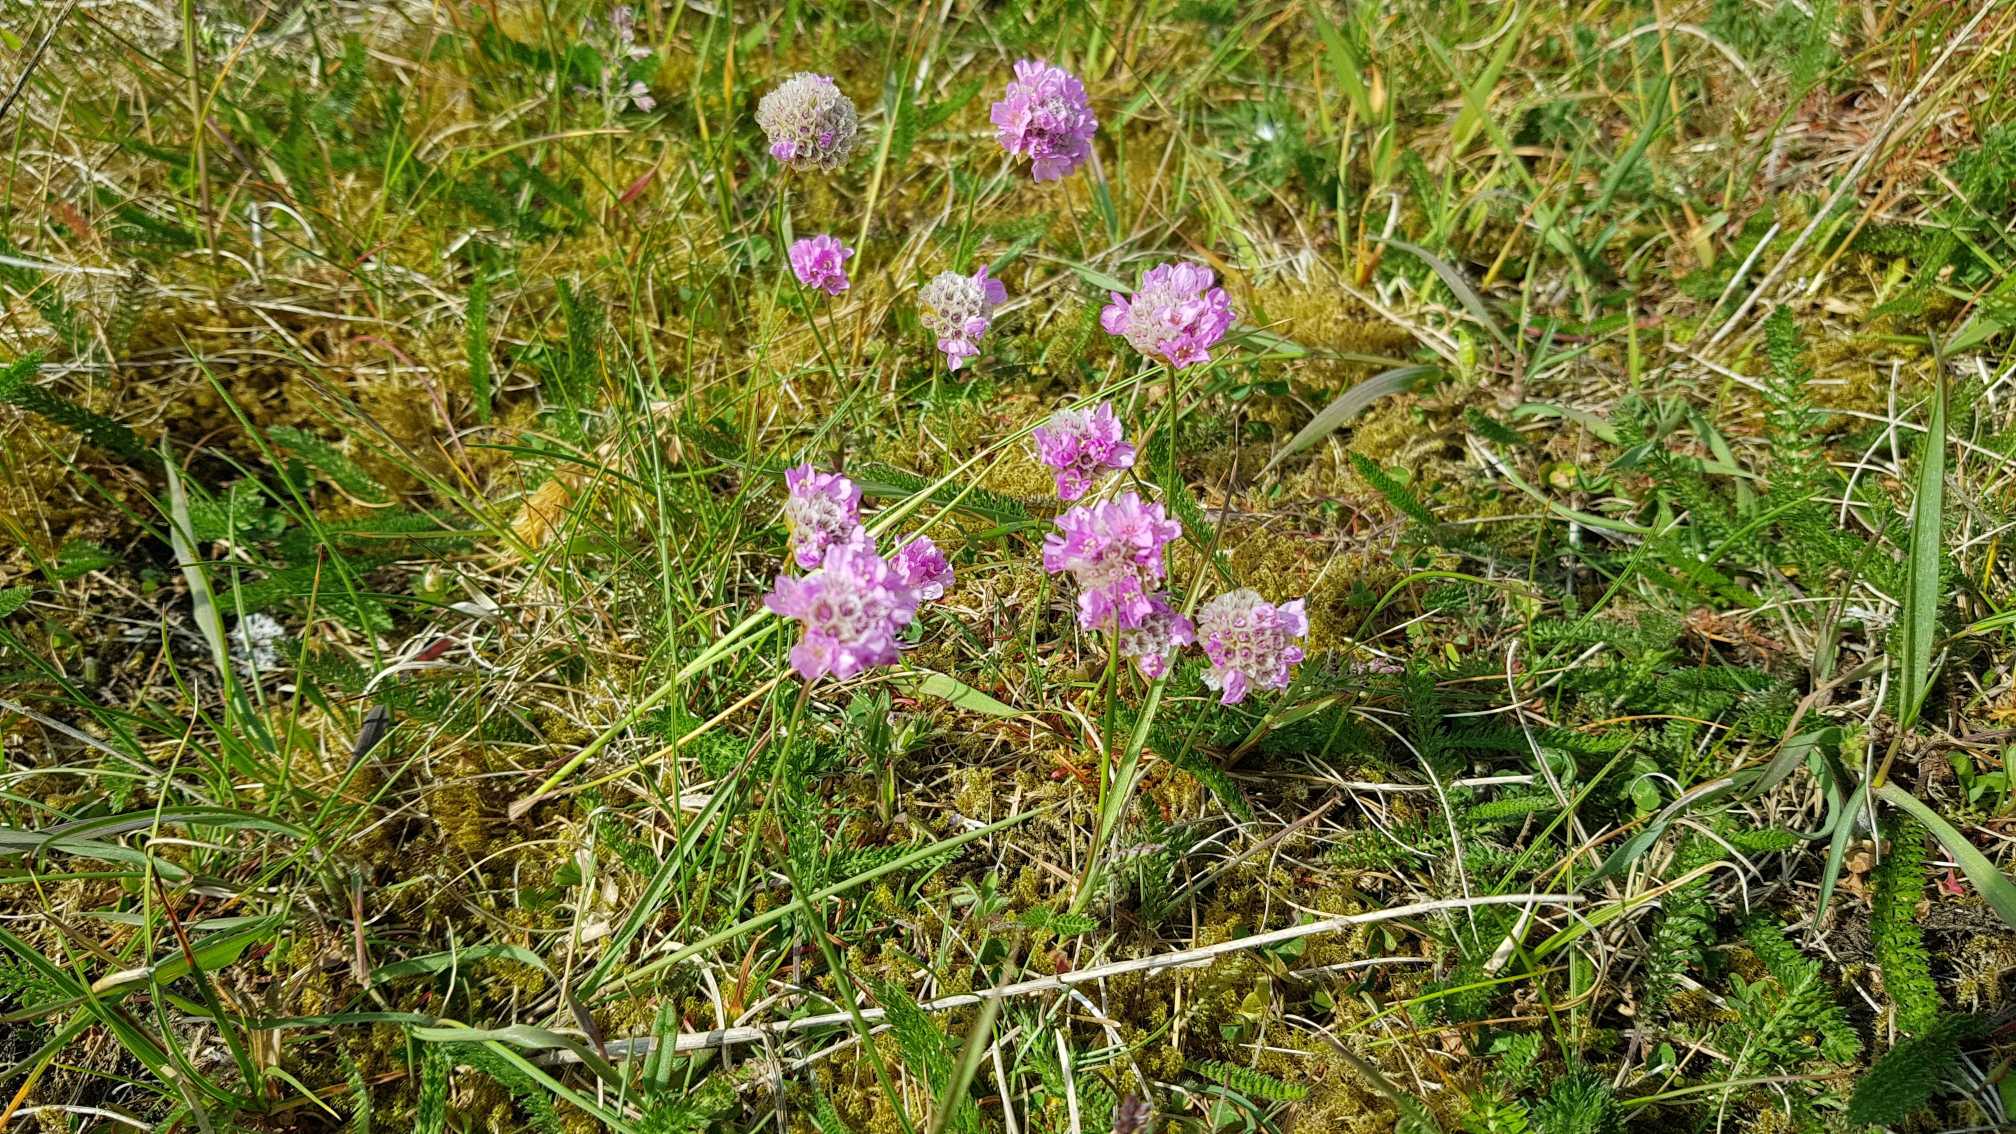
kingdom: Plantae
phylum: Tracheophyta
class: Magnoliopsida
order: Caryophyllales
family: Plumbaginaceae
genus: Armeria
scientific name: Armeria maritima
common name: Engelskgræs
